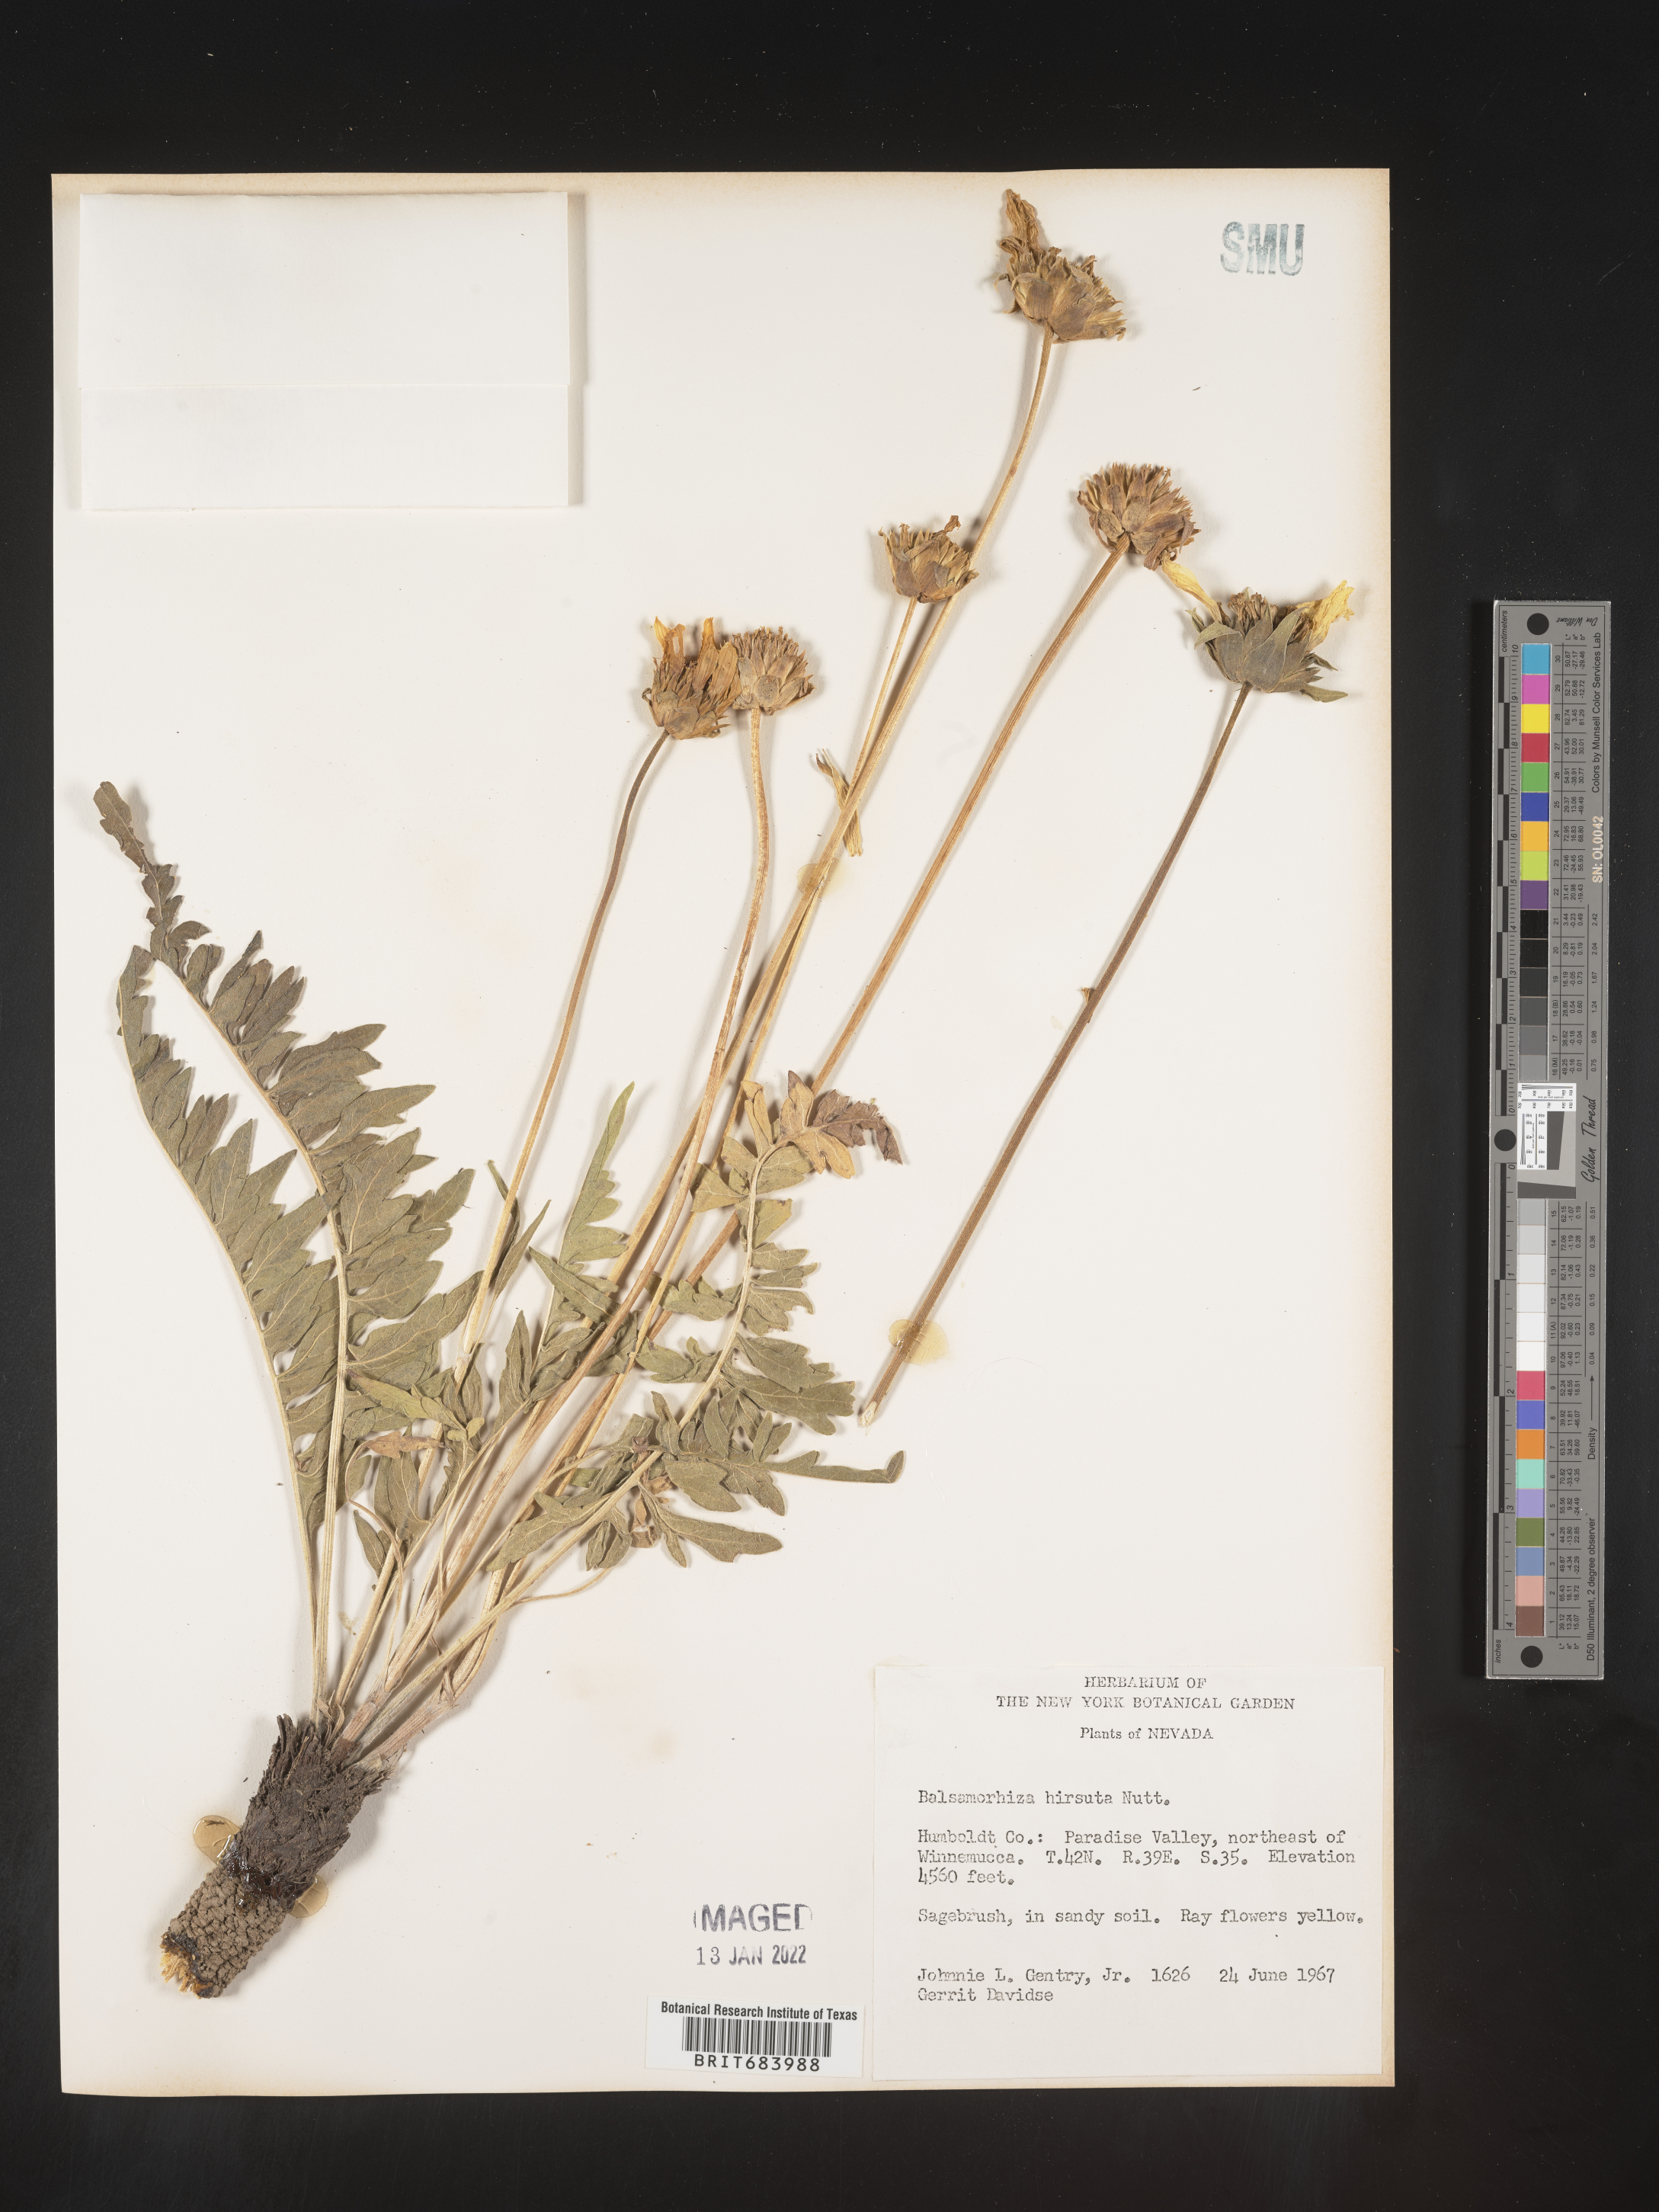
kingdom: Plantae
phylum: Tracheophyta
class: Magnoliopsida
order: Asterales
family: Asteraceae
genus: Balsamorhiza
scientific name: Balsamorhiza hookeri
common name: Hooker's balsamroot
